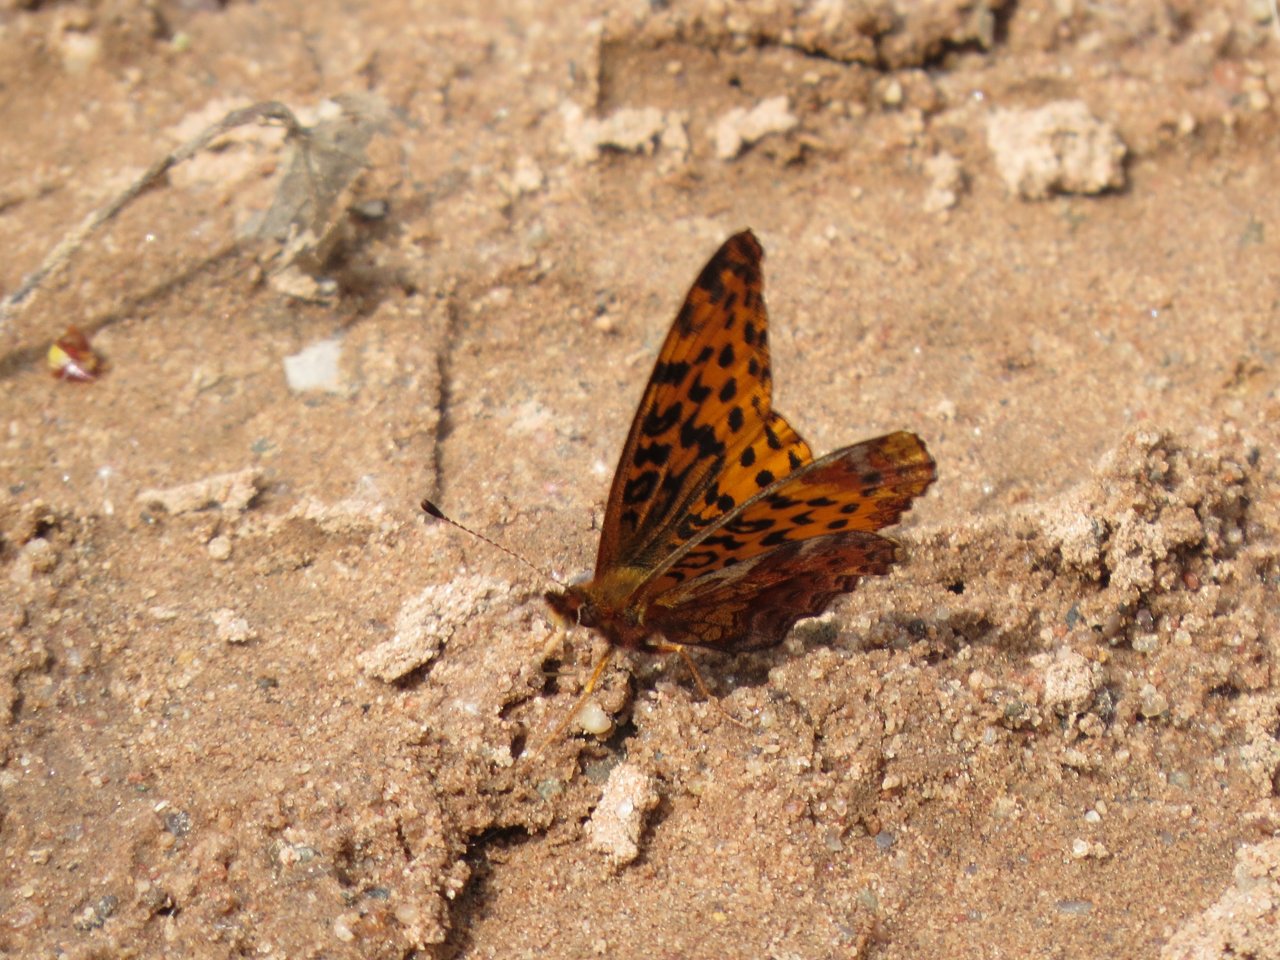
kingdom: Animalia
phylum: Arthropoda
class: Insecta
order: Lepidoptera
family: Nymphalidae
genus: Clossiana
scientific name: Clossiana toddi
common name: Meadow Fritillary
